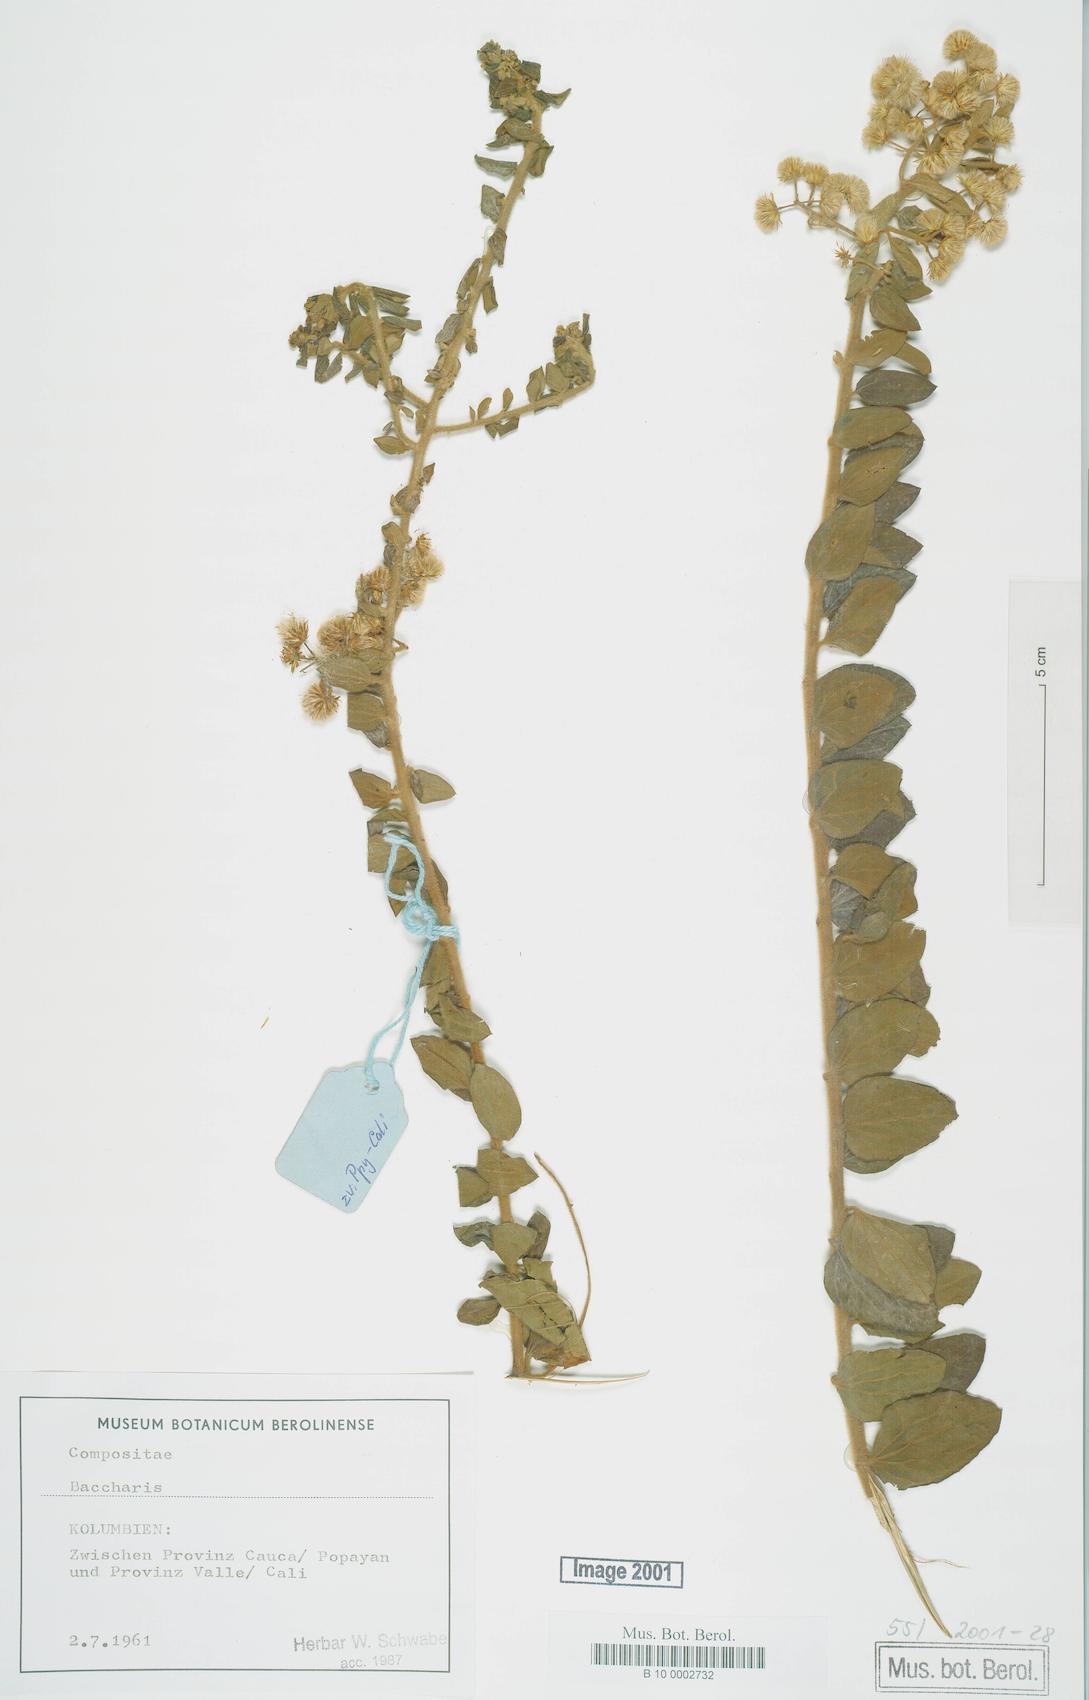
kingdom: Plantae
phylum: Tracheophyta
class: Magnoliopsida
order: Asterales
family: Asteraceae
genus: Baccharis
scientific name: Baccharis
